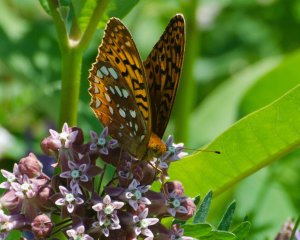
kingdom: Animalia
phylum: Arthropoda
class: Insecta
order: Lepidoptera
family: Nymphalidae
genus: Speyeria
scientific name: Speyeria cybele
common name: Great Spangled Fritillary
